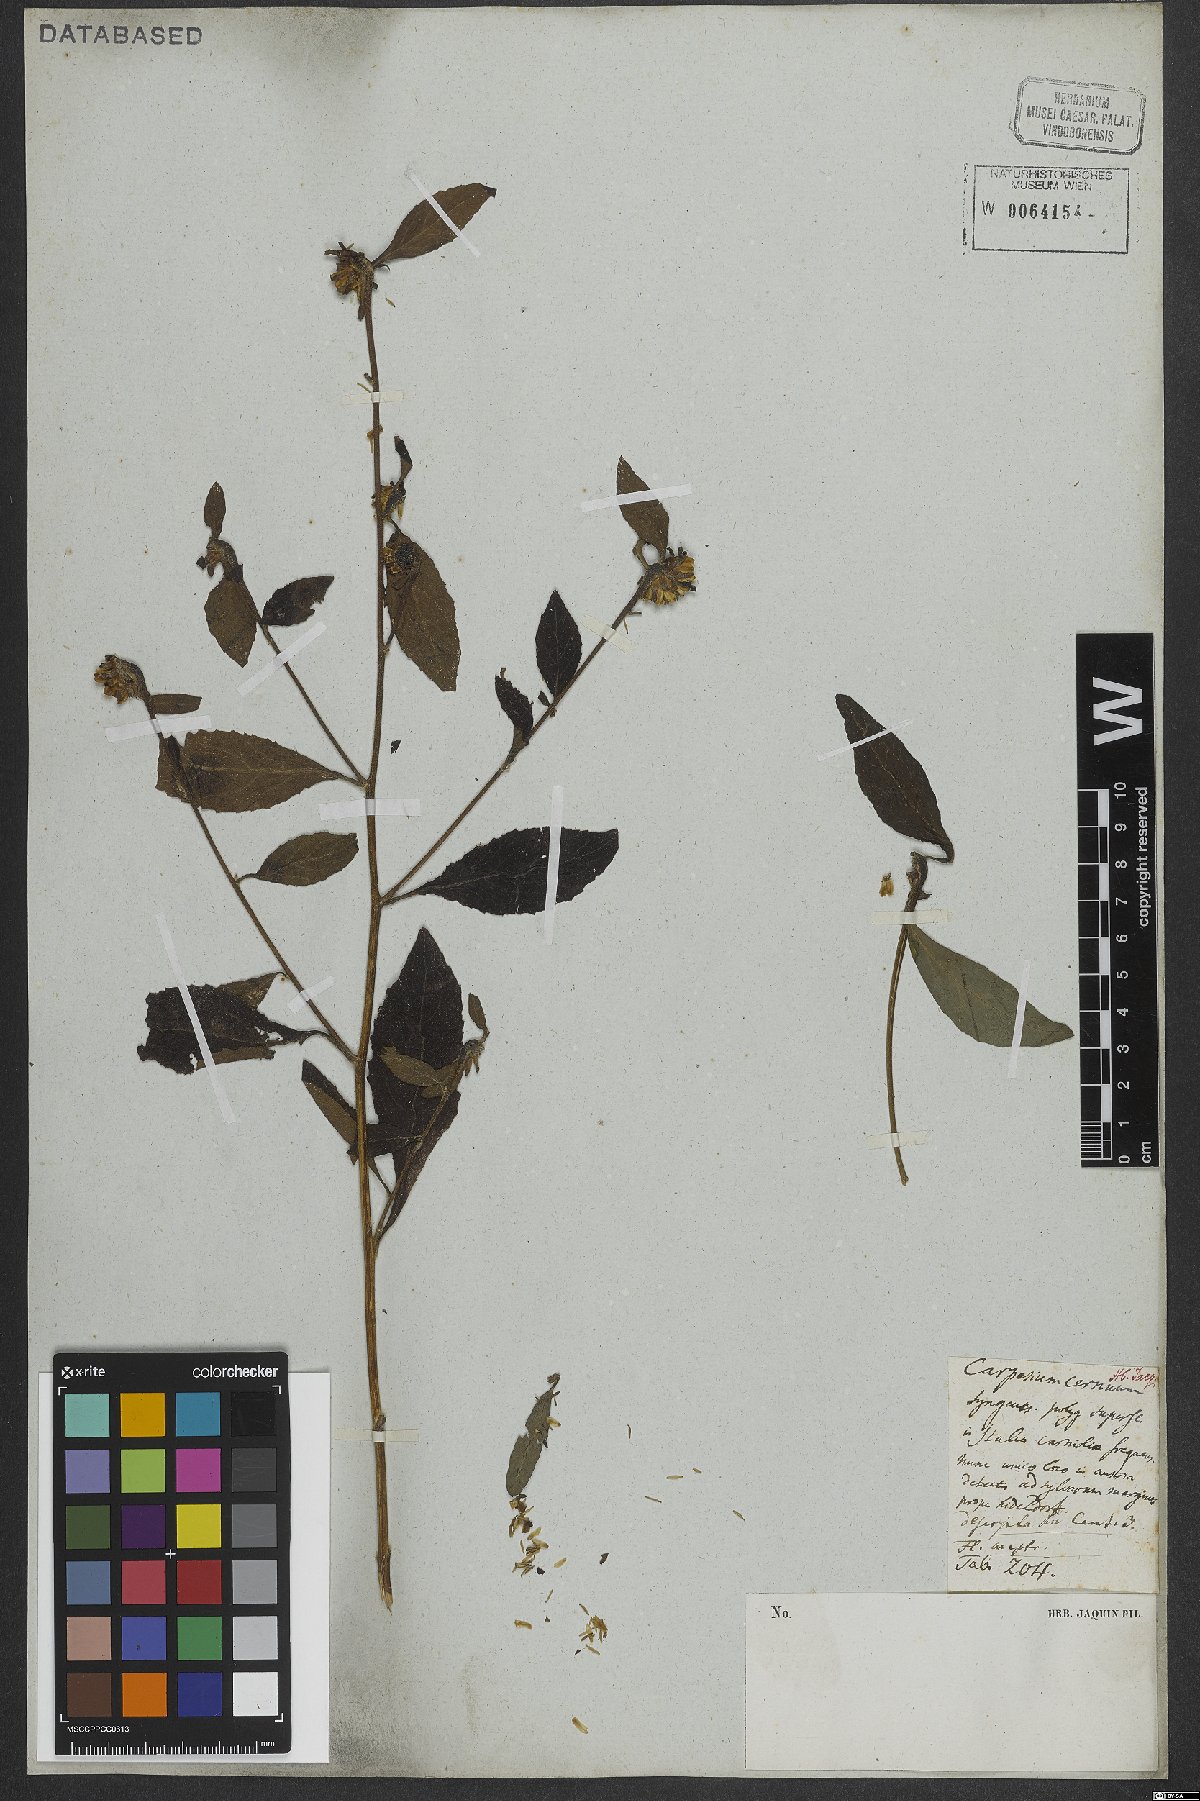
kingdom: Plantae
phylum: Tracheophyta
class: Magnoliopsida
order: Asterales
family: Asteraceae
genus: Carpesium
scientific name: Carpesium cernuum
